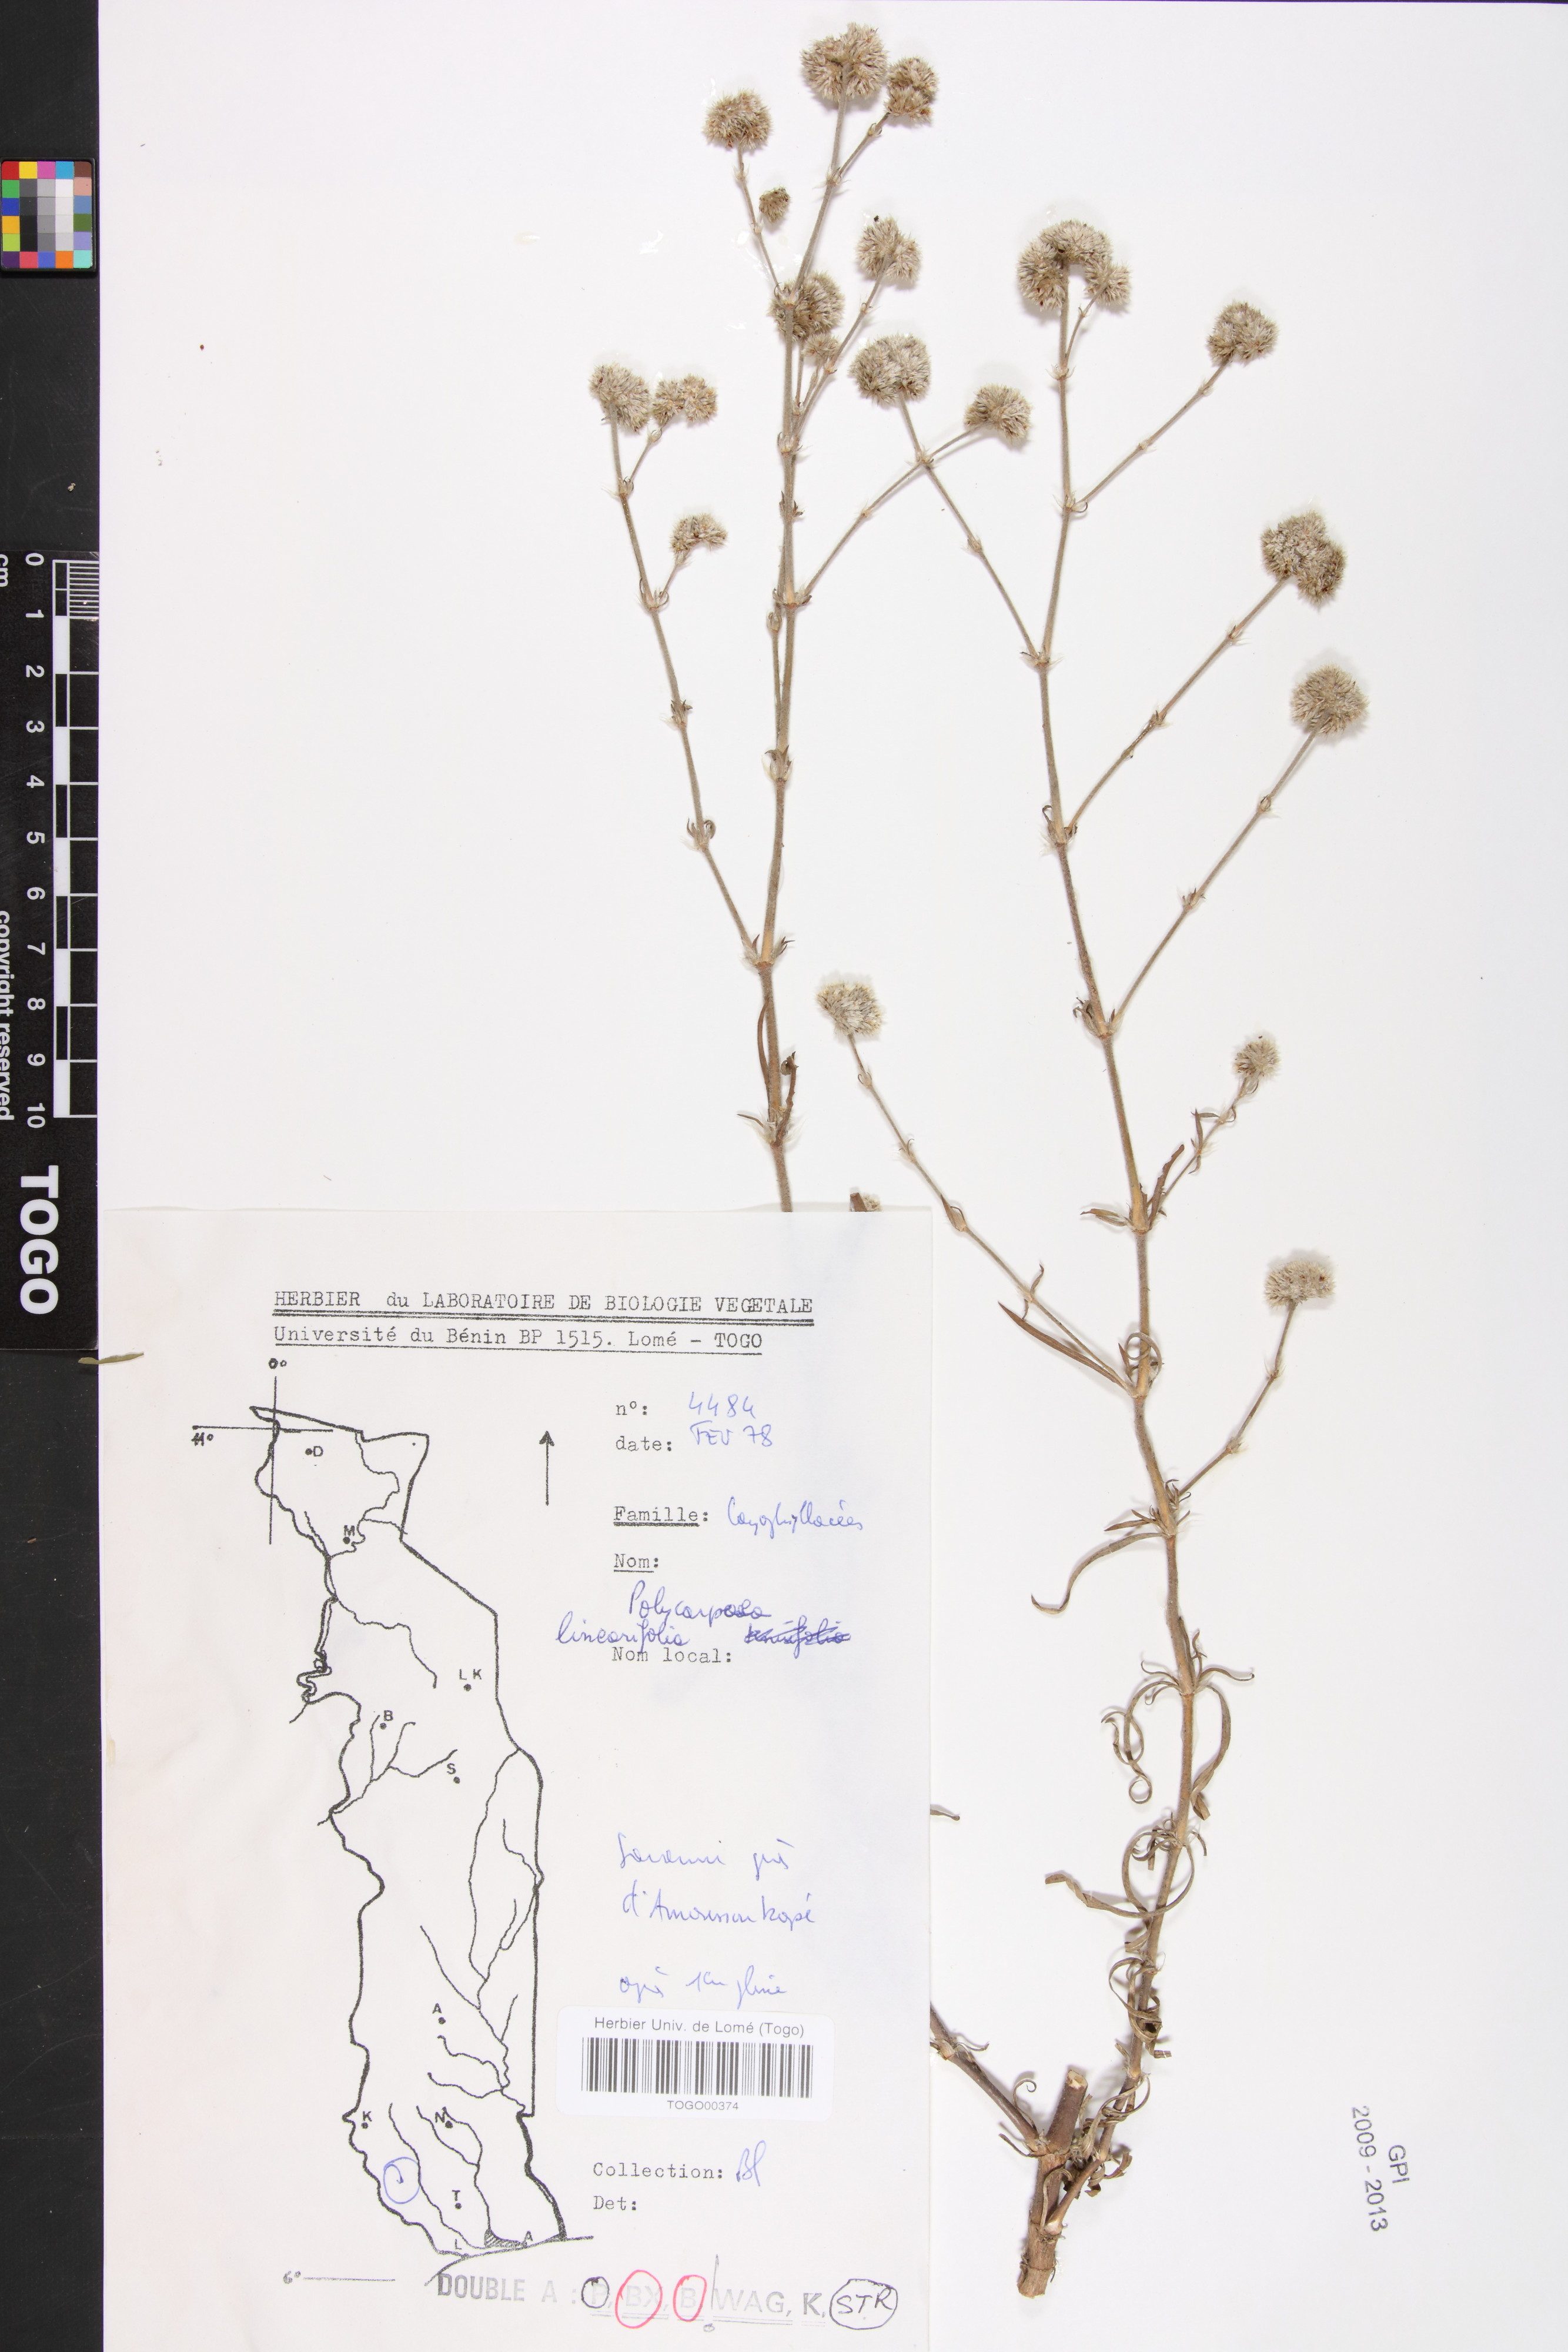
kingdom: Plantae
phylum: Tracheophyta
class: Magnoliopsida
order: Caryophyllales
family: Caryophyllaceae
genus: Polycarpaea
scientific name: Polycarpaea linearifolia
